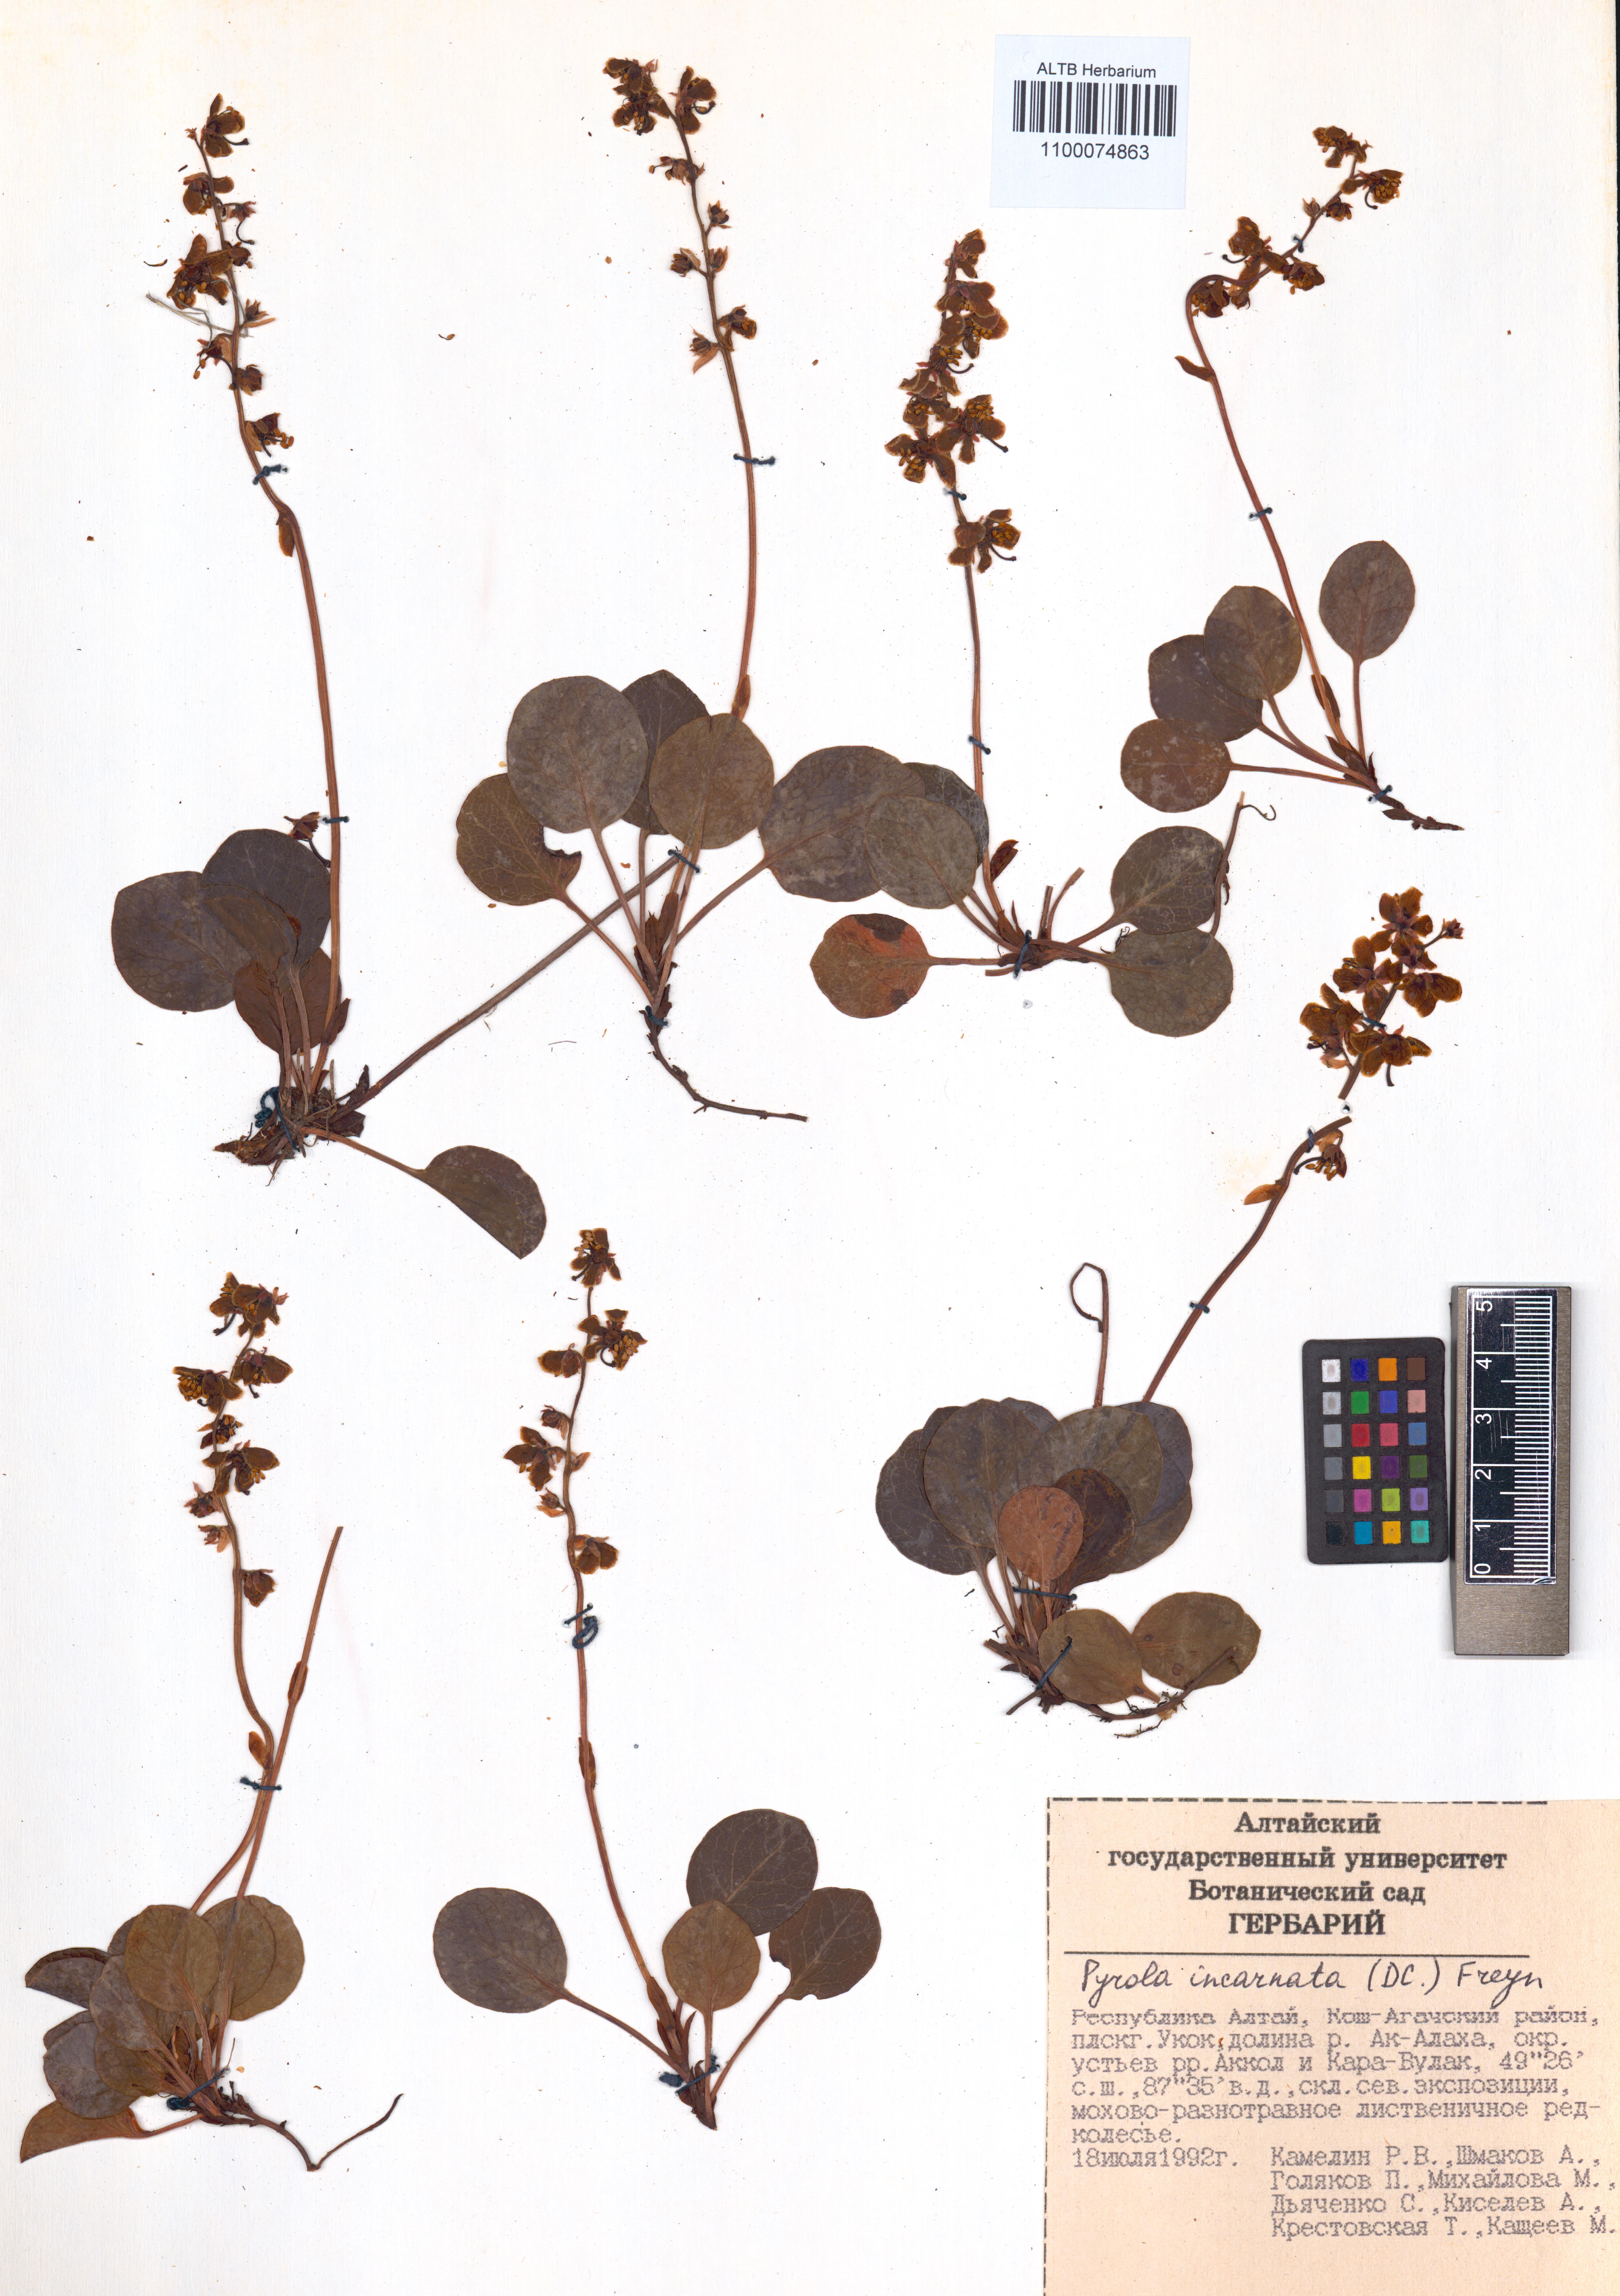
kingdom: Plantae
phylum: Tracheophyta
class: Magnoliopsida
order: Ericales
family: Ericaceae
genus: Pyrola
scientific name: Pyrola asarifolia
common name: Bog wintergreen
